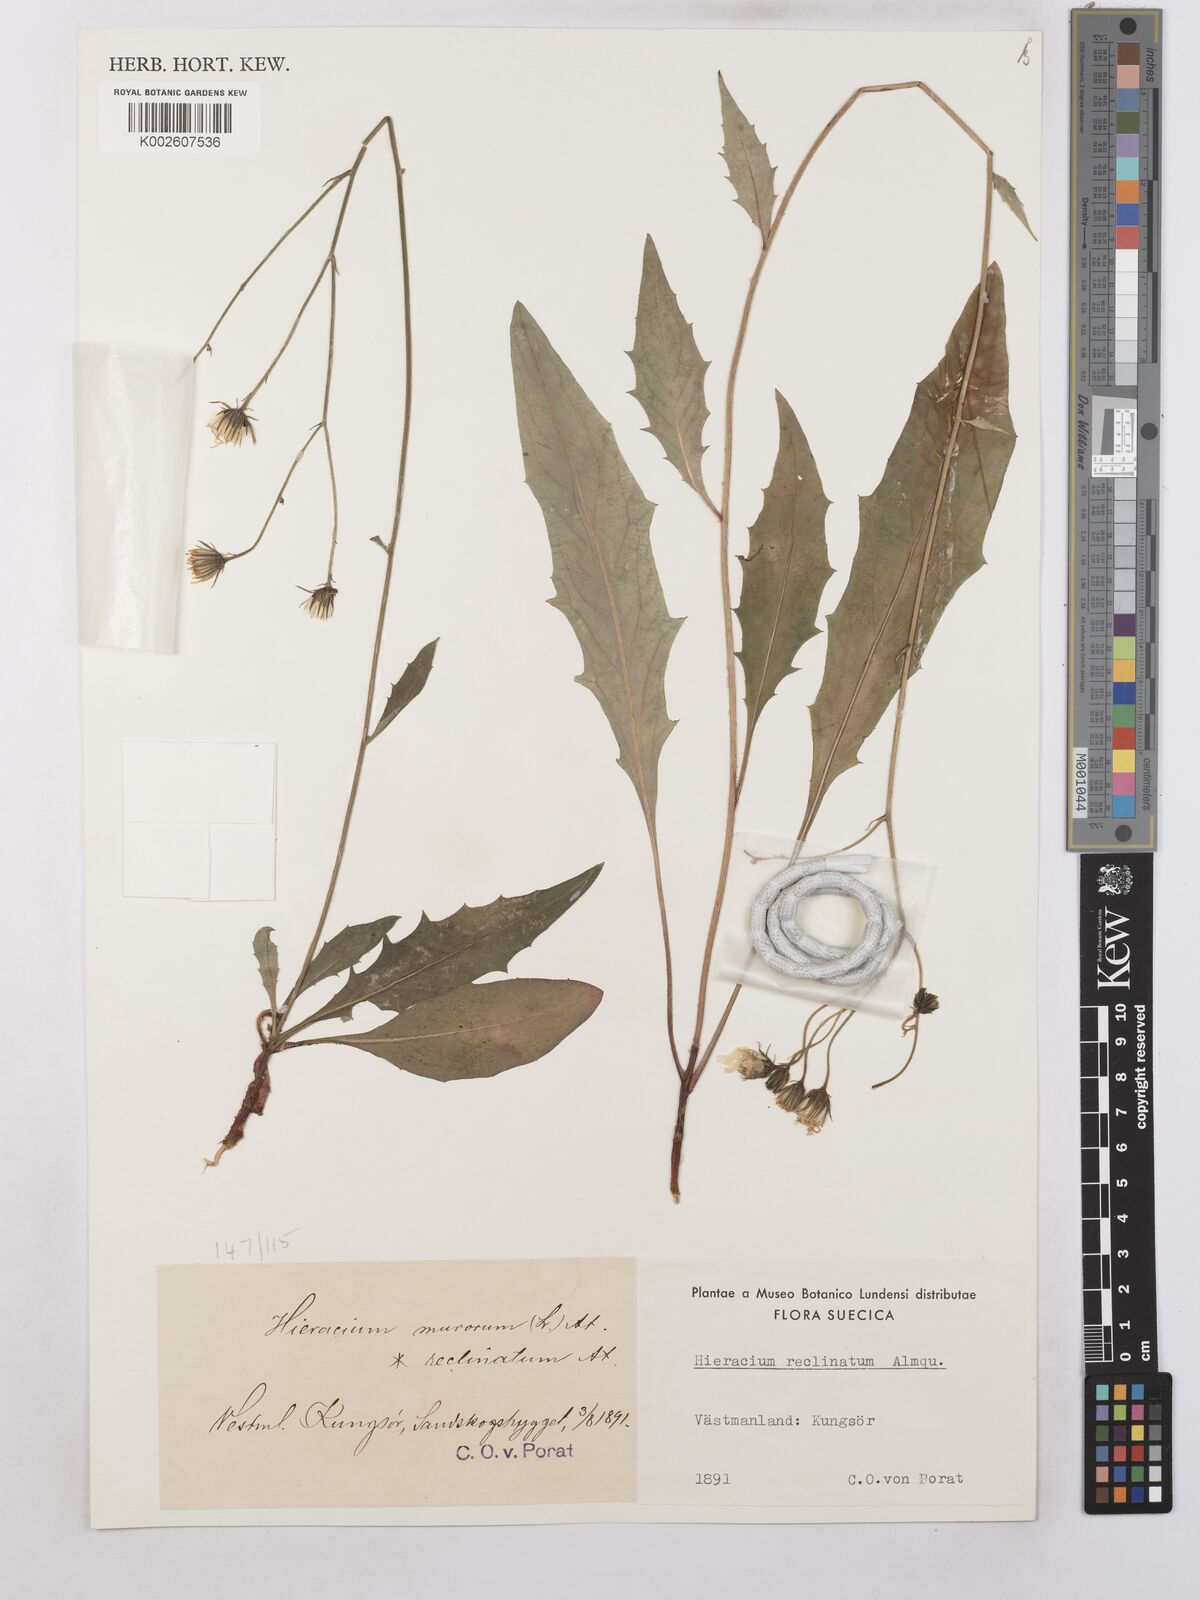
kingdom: Plantae
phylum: Tracheophyta
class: Magnoliopsida
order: Asterales
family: Asteraceae
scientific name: Asteraceae
